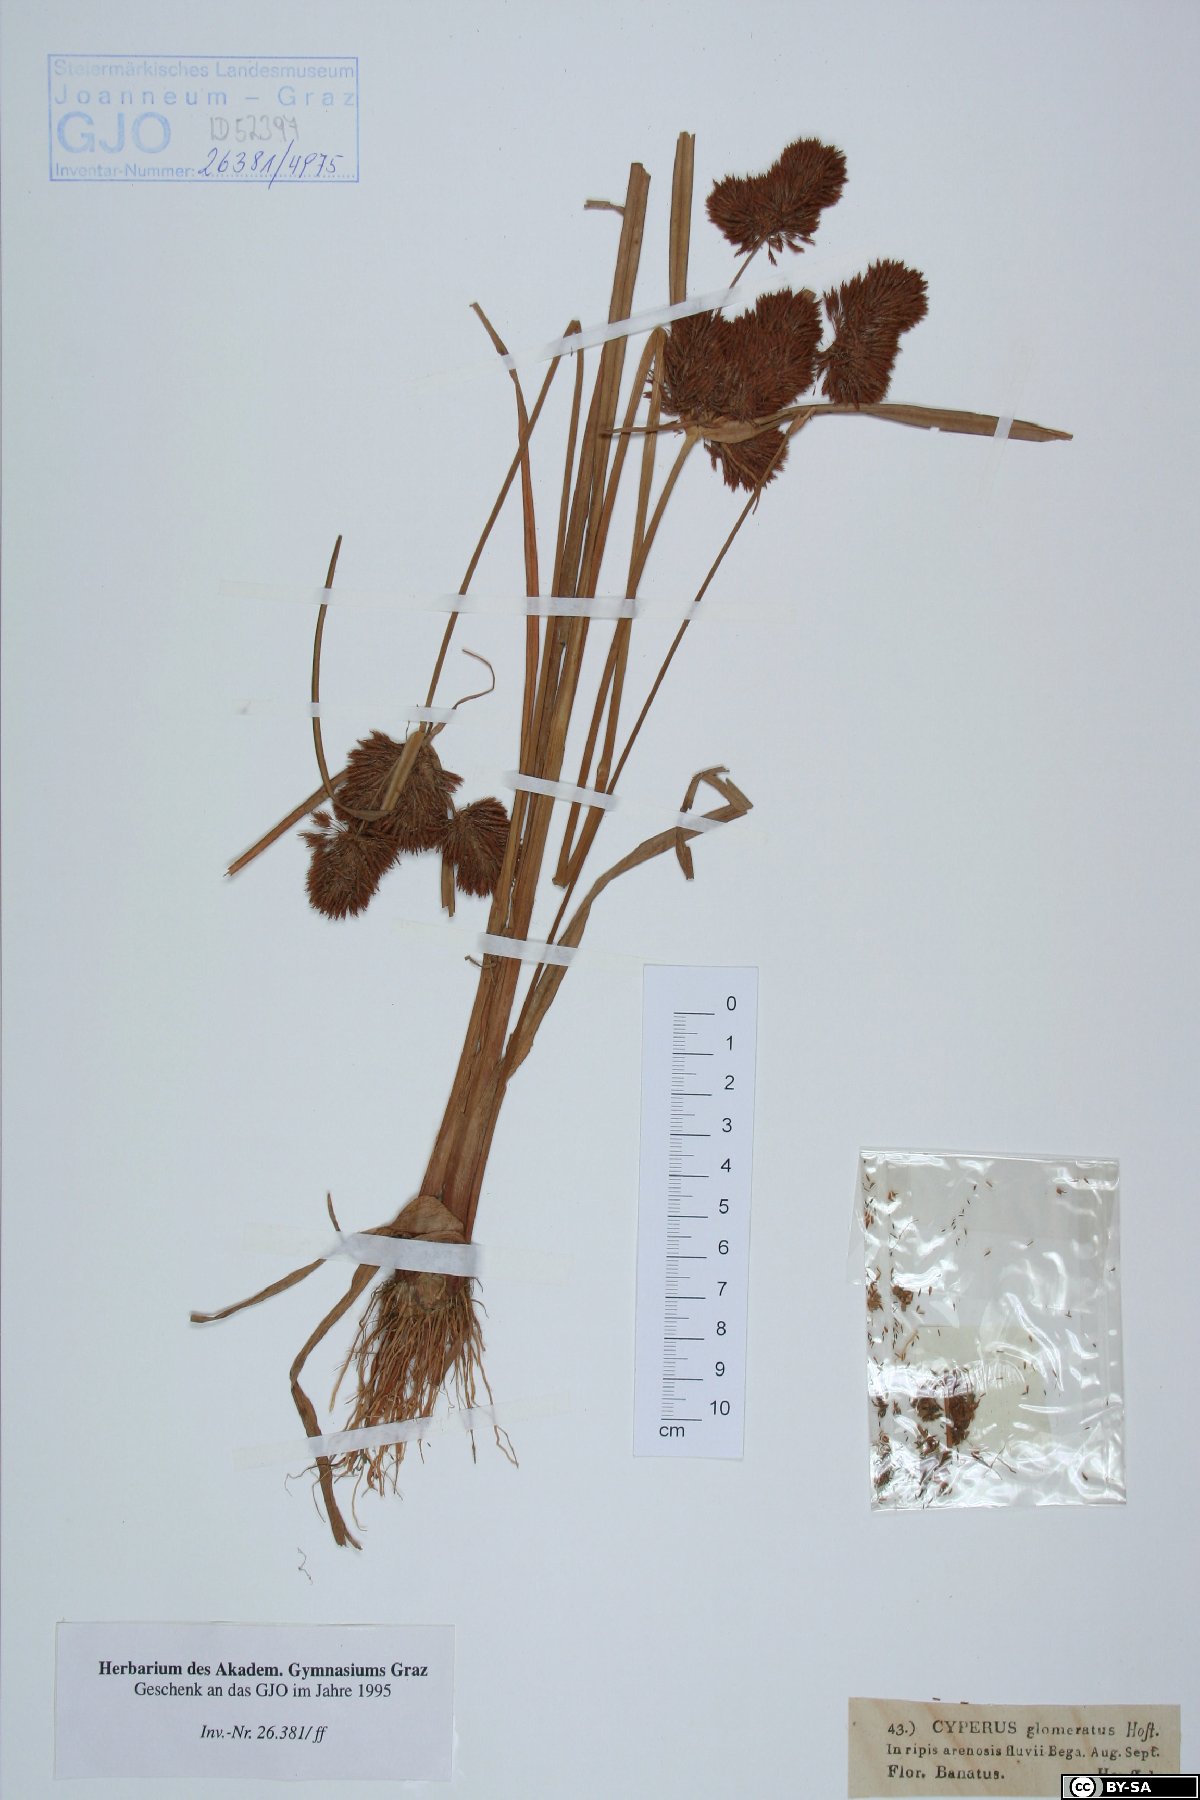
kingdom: Plantae
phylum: Tracheophyta
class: Liliopsida
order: Poales
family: Cyperaceae
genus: Cyperus
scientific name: Cyperus glomeratus
